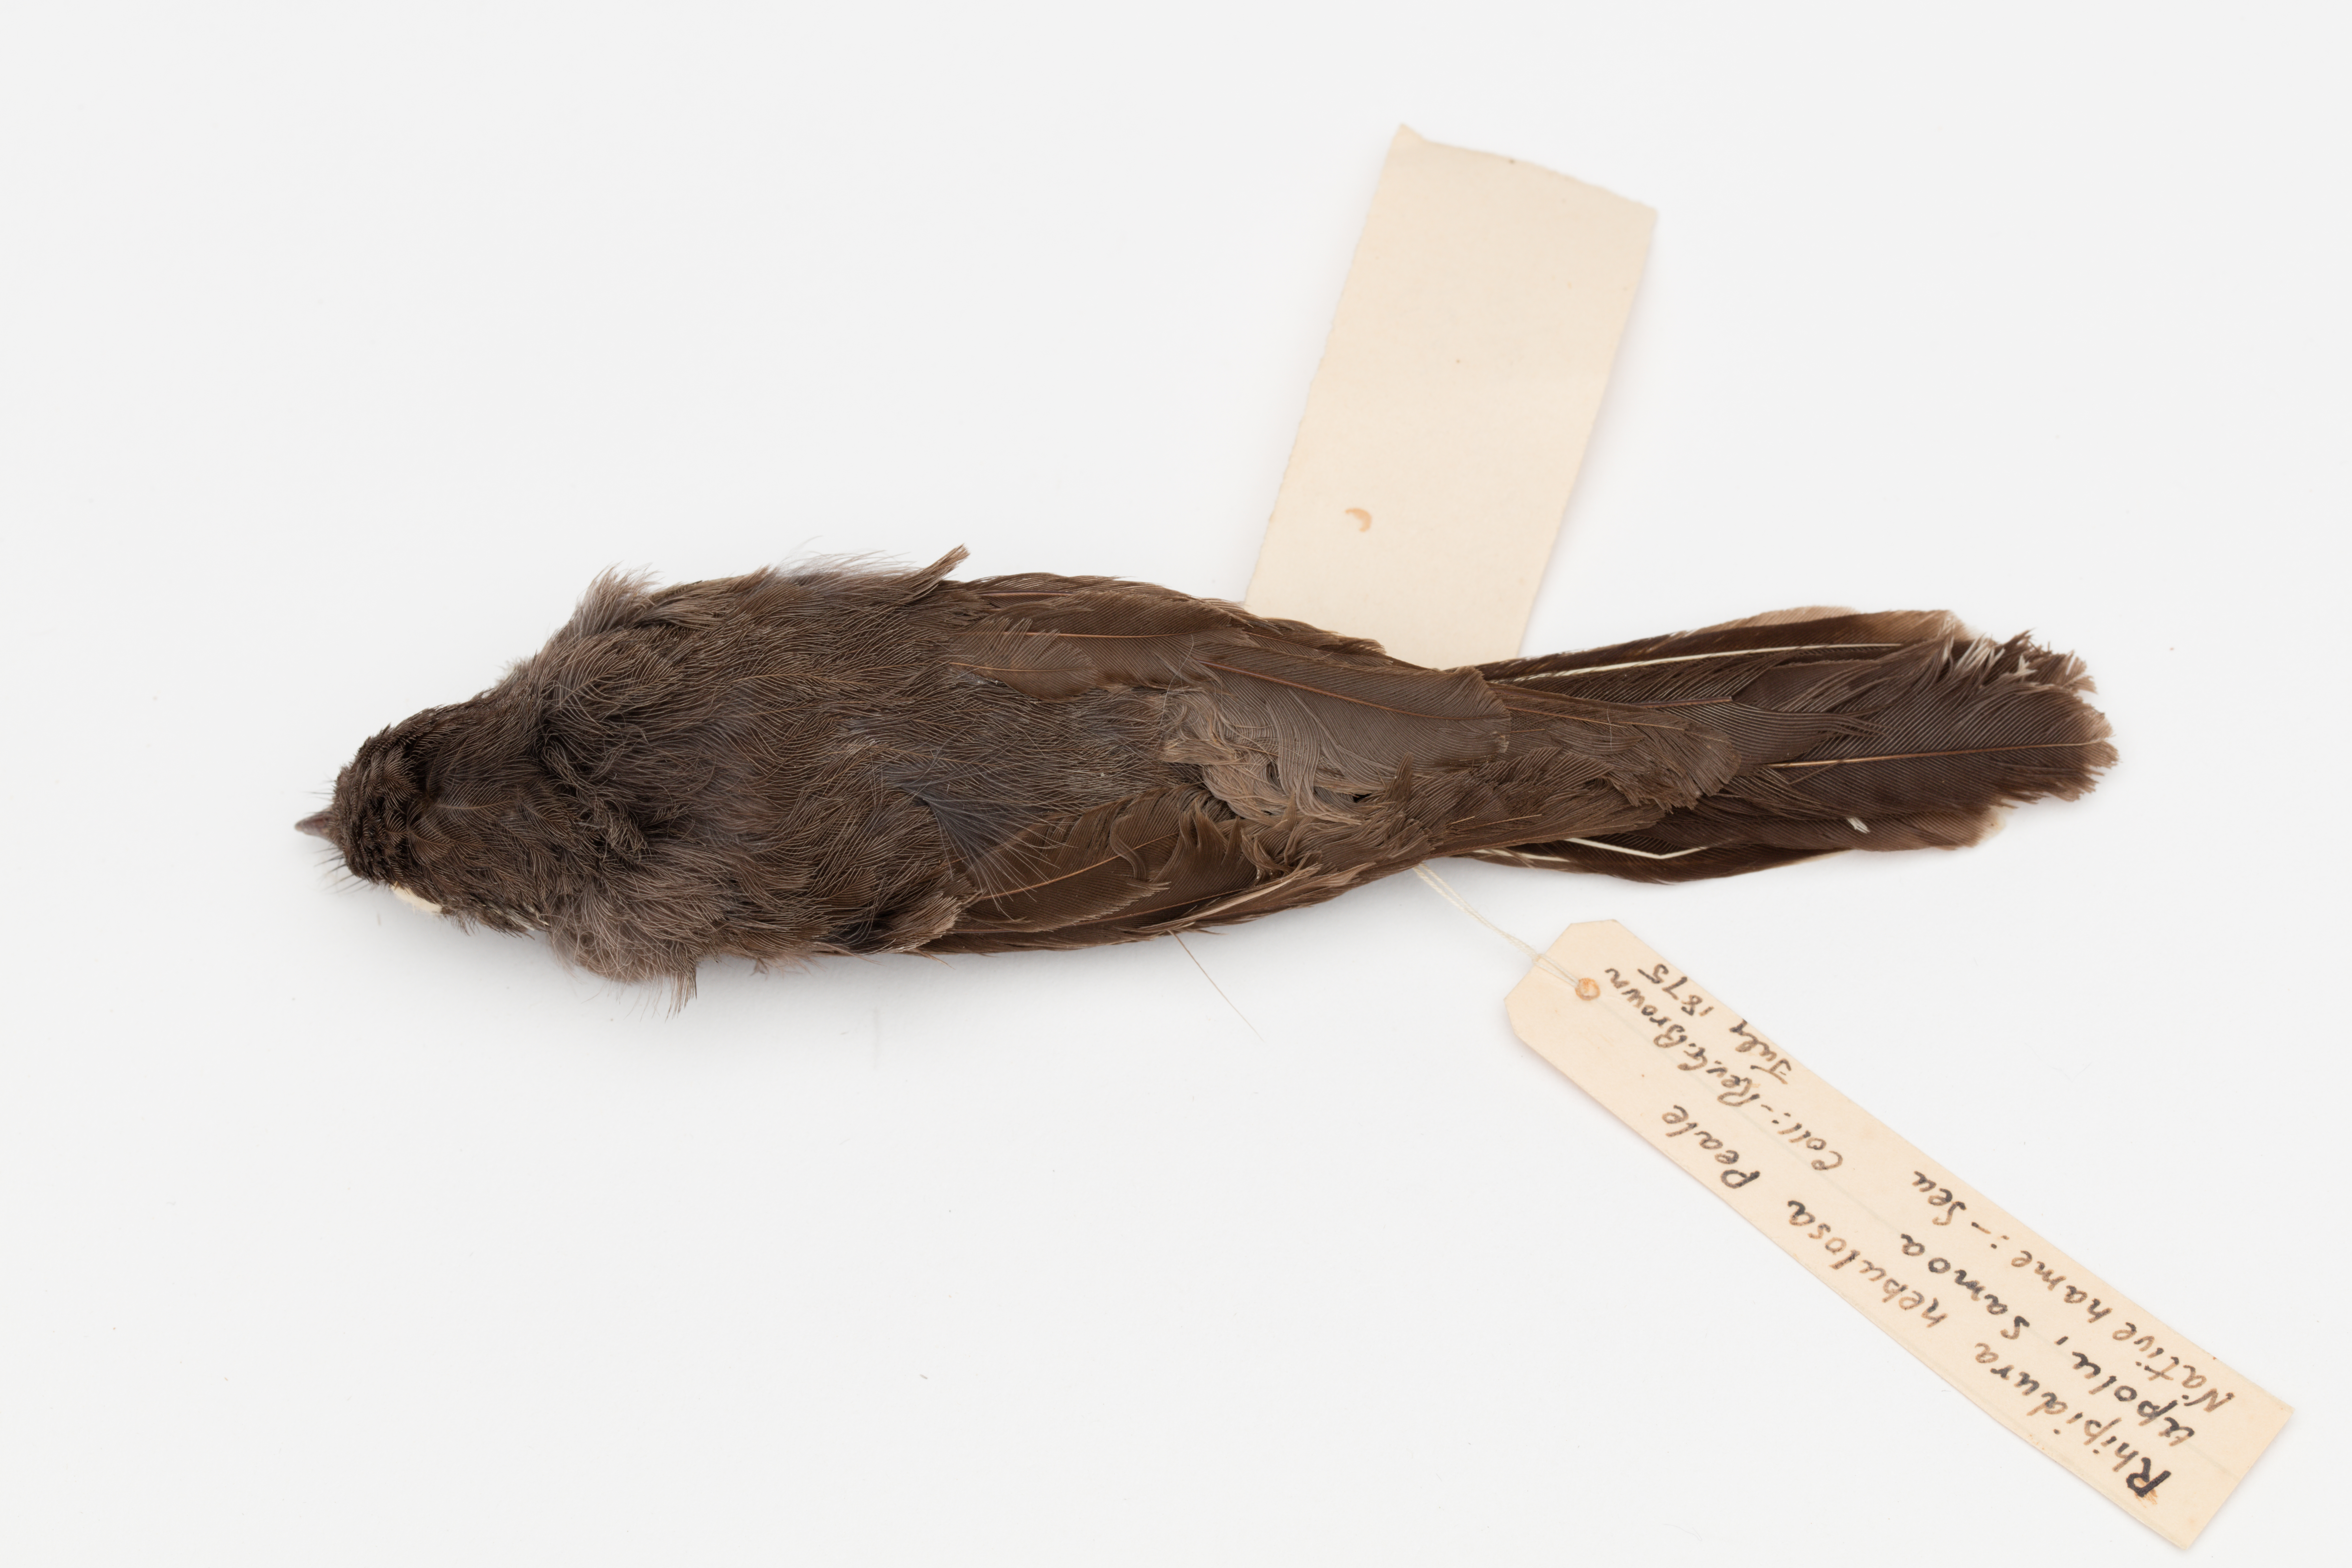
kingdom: Animalia
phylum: Chordata
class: Aves
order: Passeriformes
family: Rhipiduridae
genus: Rhipidura
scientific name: Rhipidura nebulosa
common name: Samoan fantail
